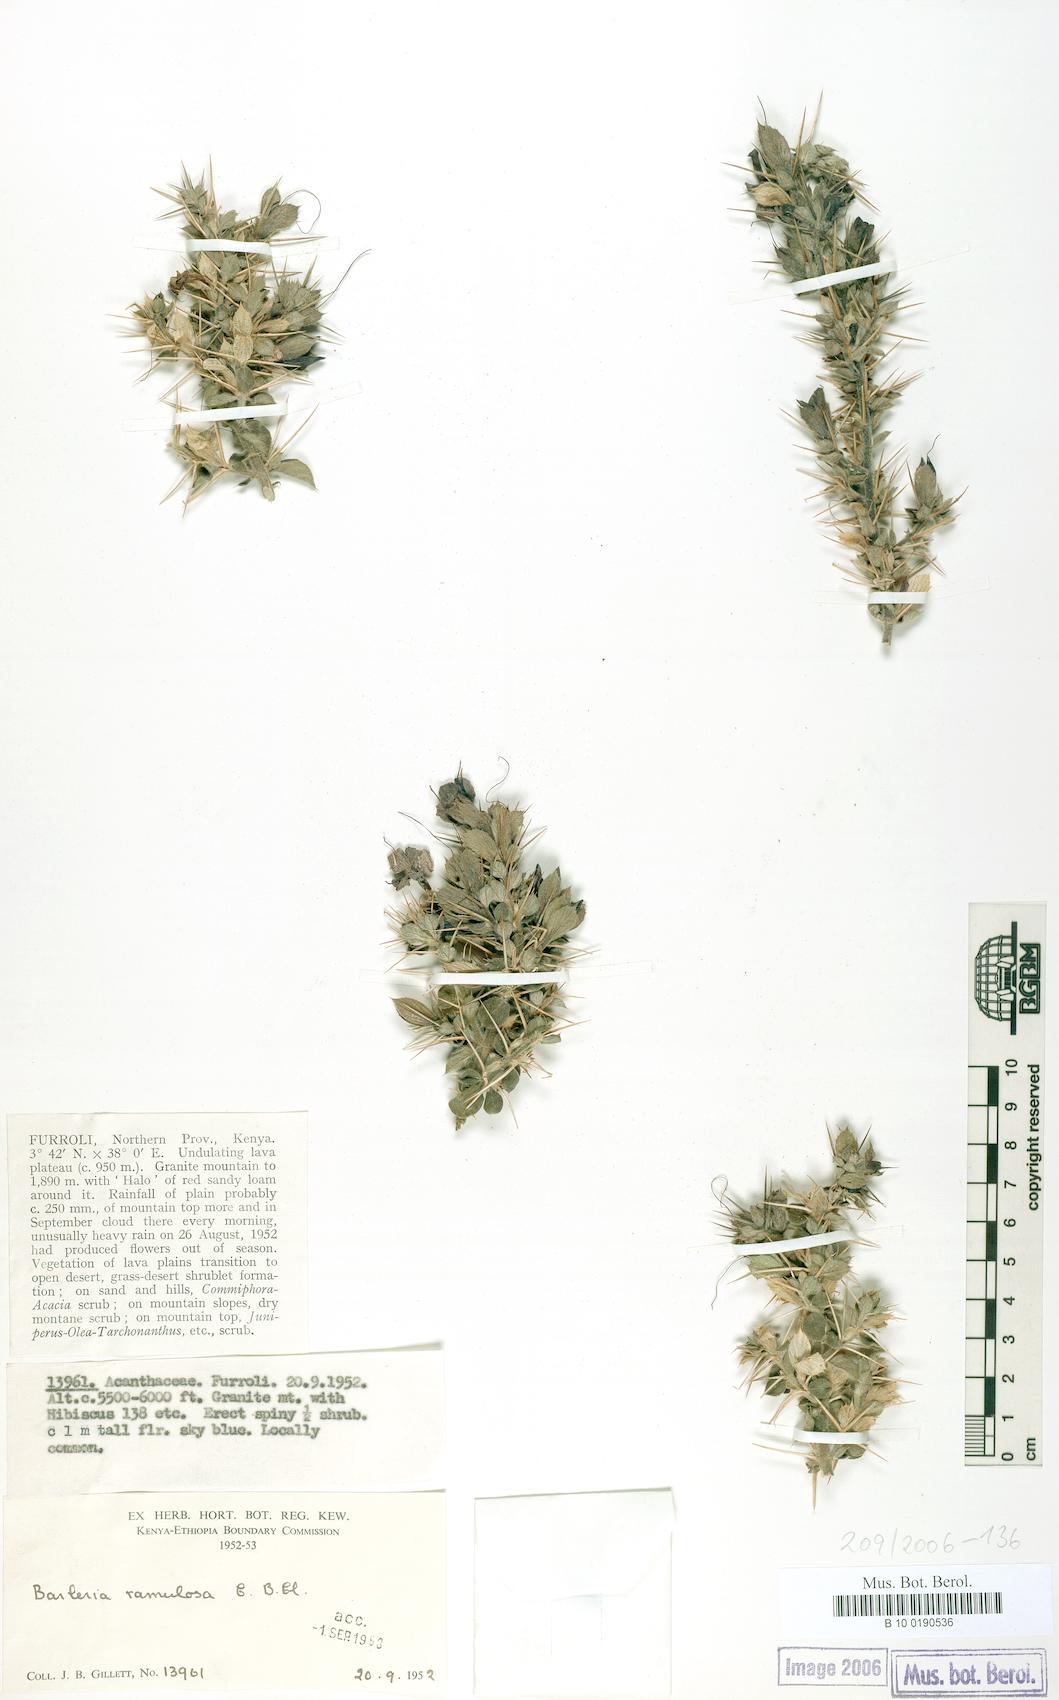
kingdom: Plantae
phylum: Tracheophyta
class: Magnoliopsida
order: Lamiales
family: Acanthaceae
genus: Barleria
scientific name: Barleria ramulosa
